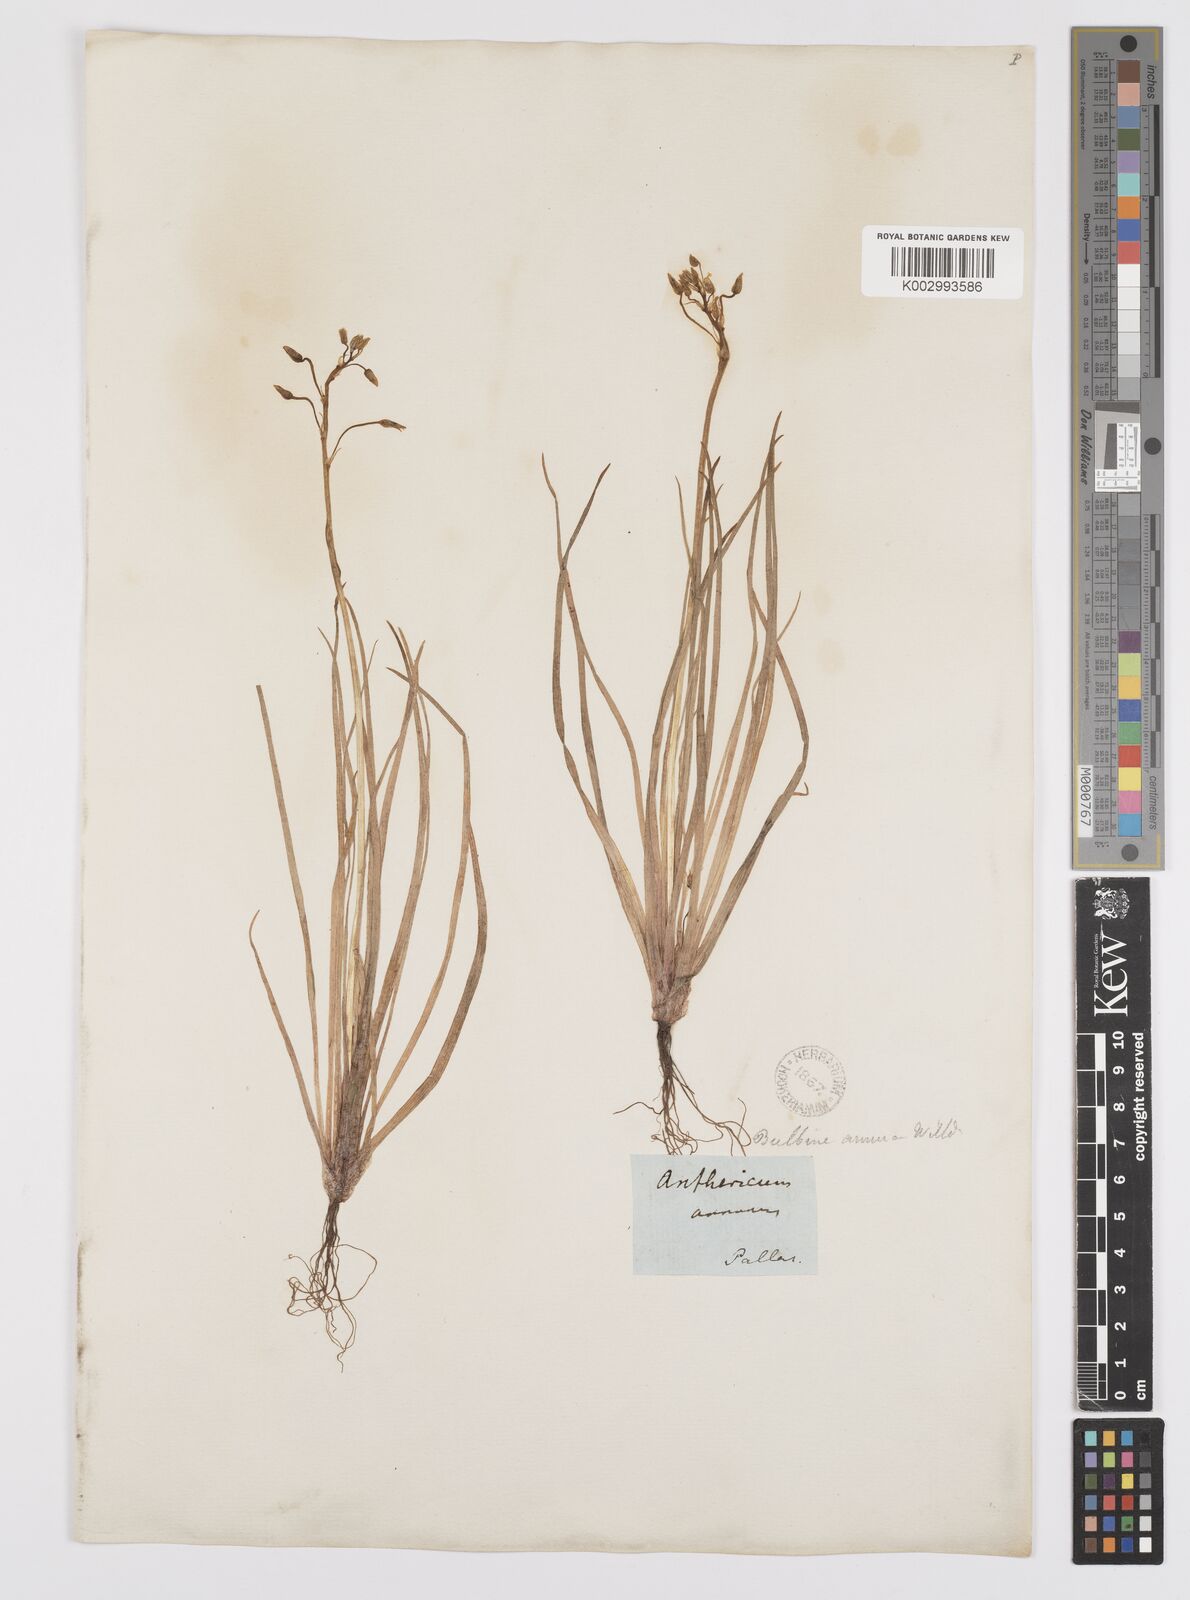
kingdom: Plantae
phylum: Tracheophyta
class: Liliopsida
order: Asparagales
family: Asphodelaceae
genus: Bulbine
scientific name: Bulbine annua
